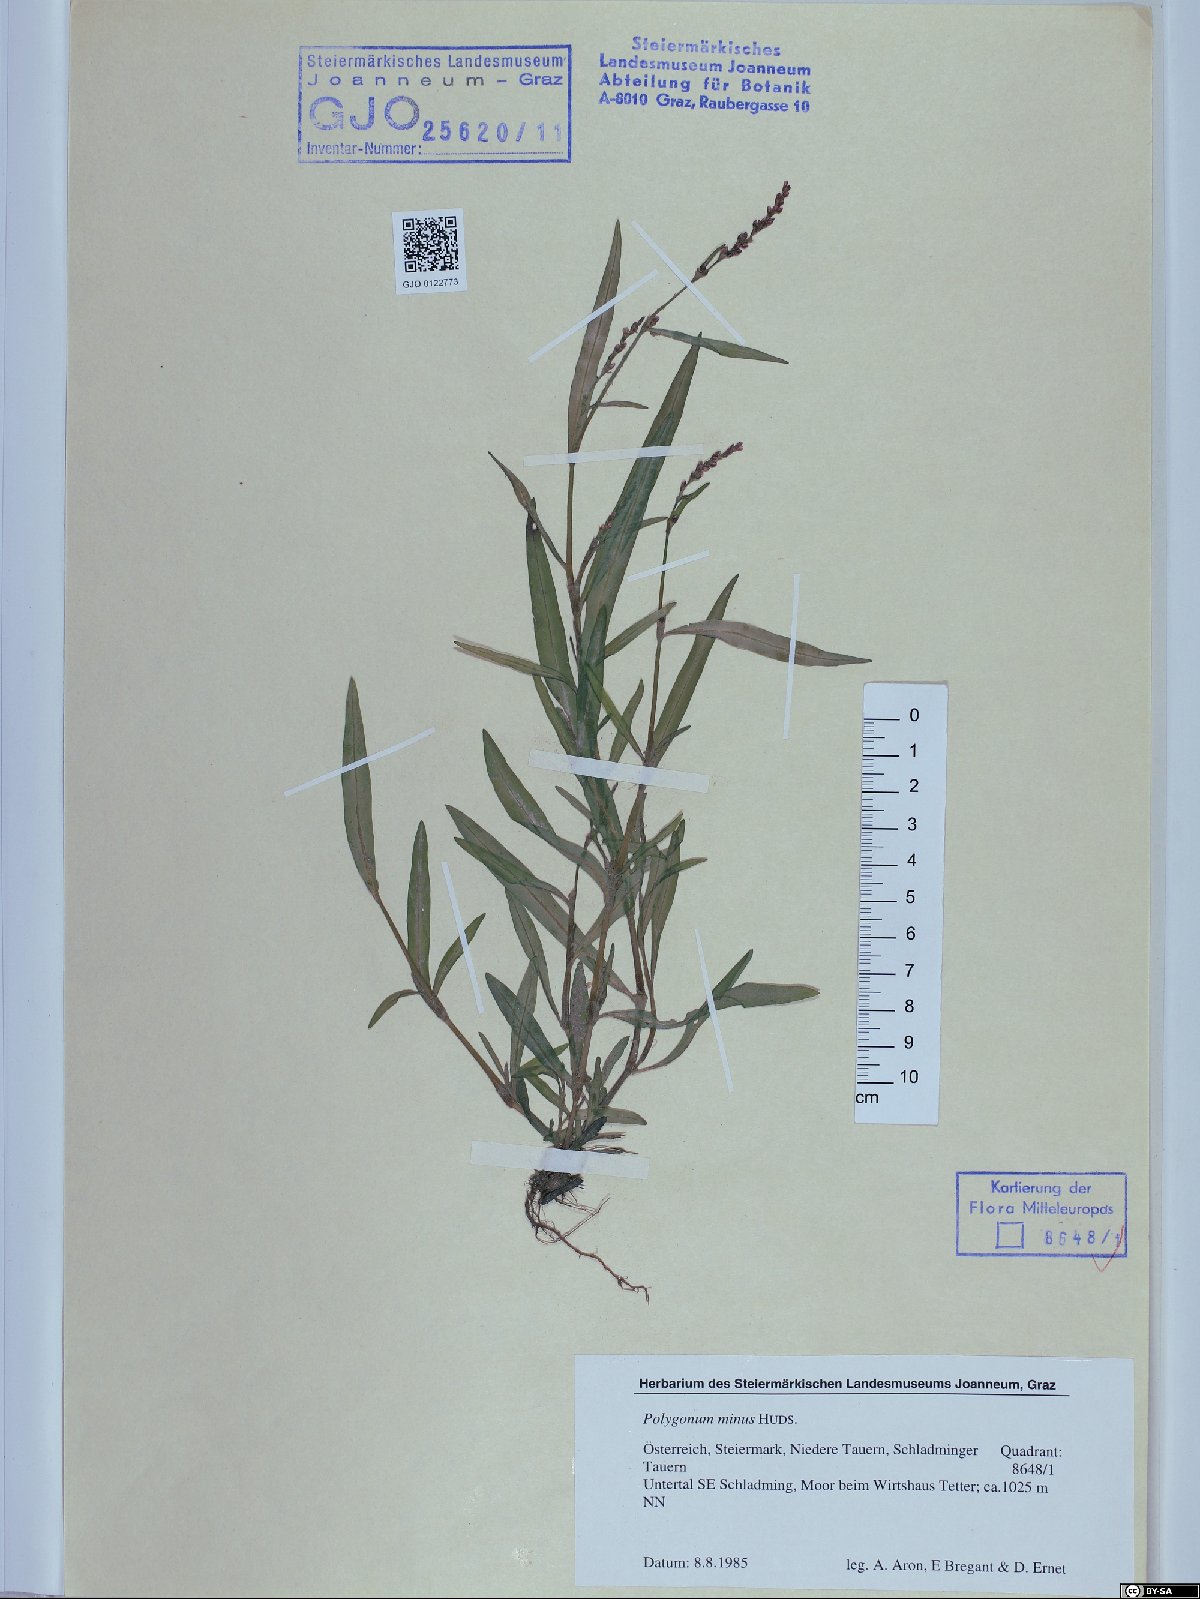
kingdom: Plantae
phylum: Tracheophyta
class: Magnoliopsida
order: Caryophyllales
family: Polygonaceae
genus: Persicaria
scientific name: Persicaria minor
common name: Small water-pepper
